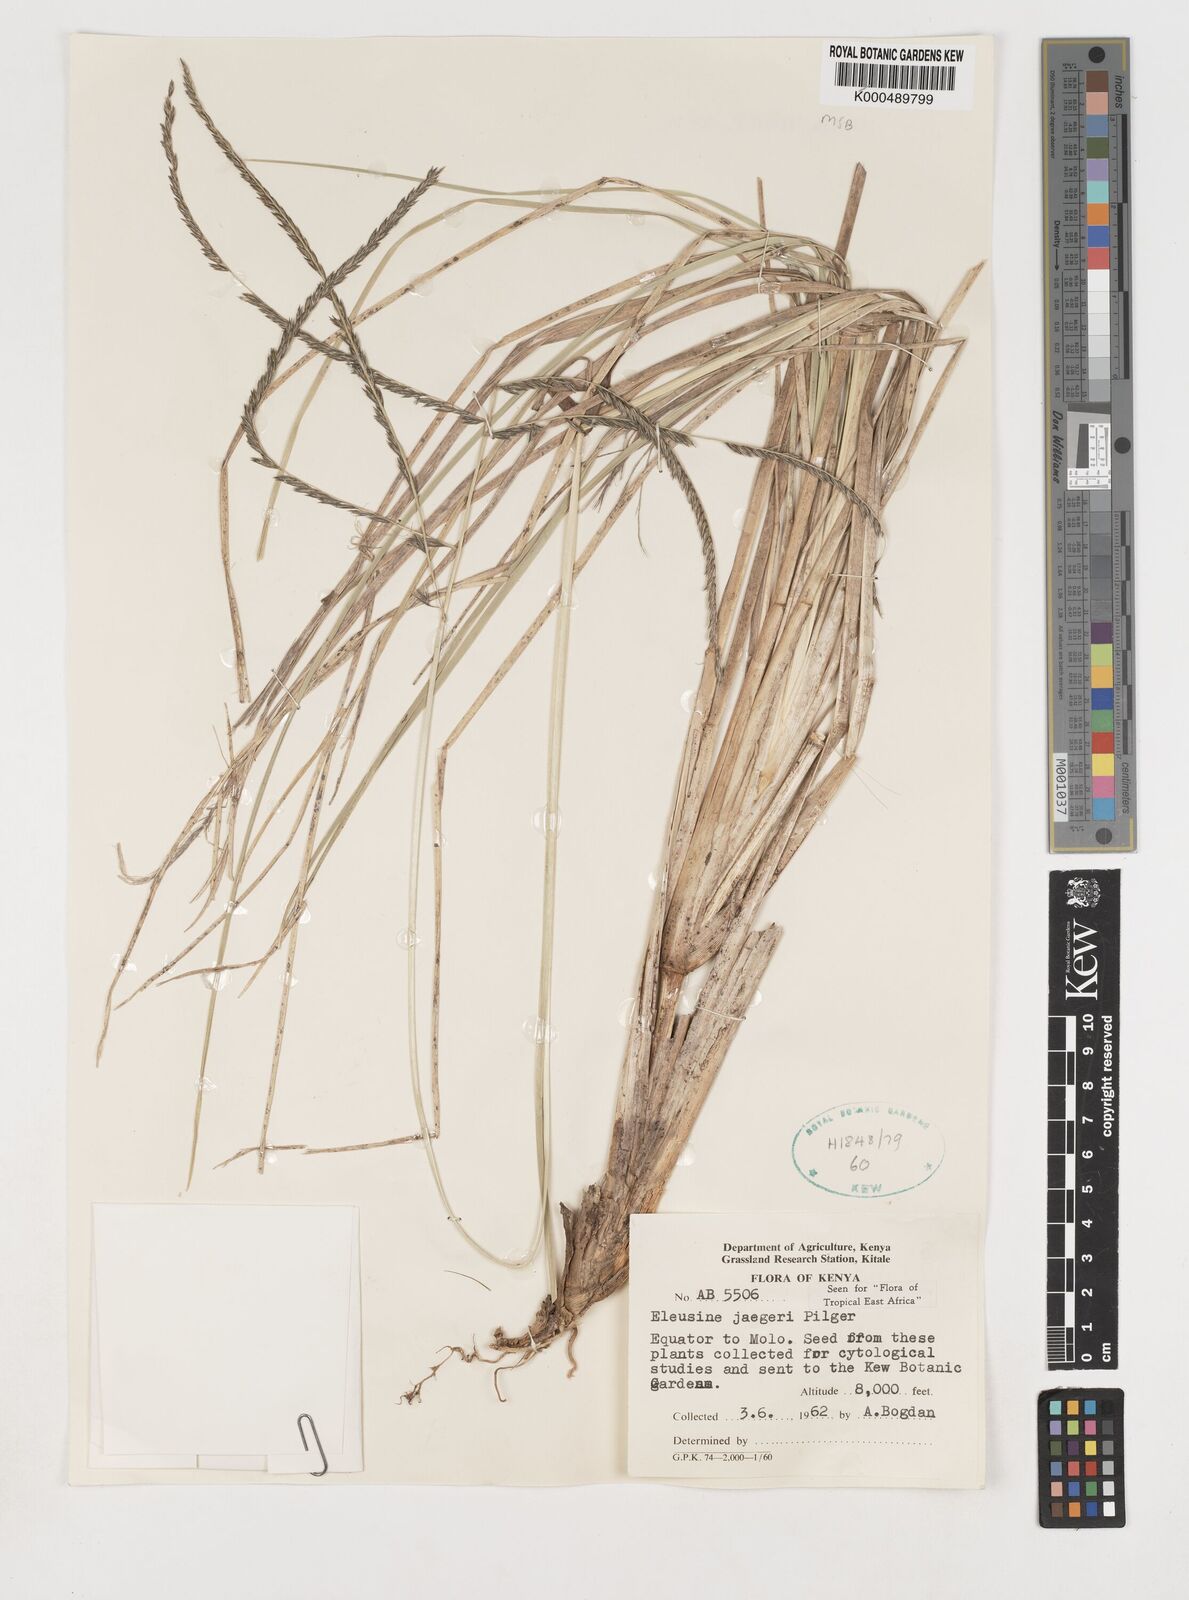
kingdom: Plantae
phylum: Tracheophyta
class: Liliopsida
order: Poales
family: Poaceae
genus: Eleusine
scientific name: Eleusine jaegeri
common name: Manyatta grass
